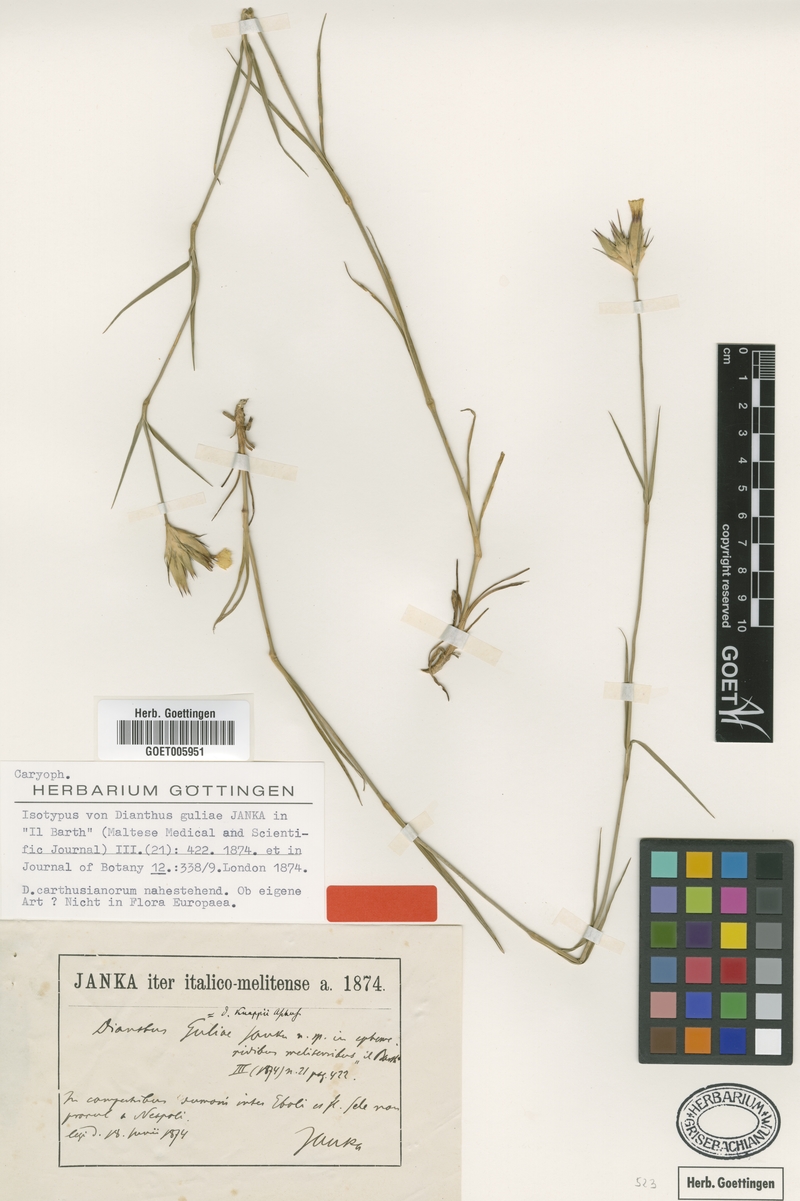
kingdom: Plantae
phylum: Tracheophyta
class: Magnoliopsida
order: Caryophyllales
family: Caryophyllaceae
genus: Dianthus
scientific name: Dianthus guliae
